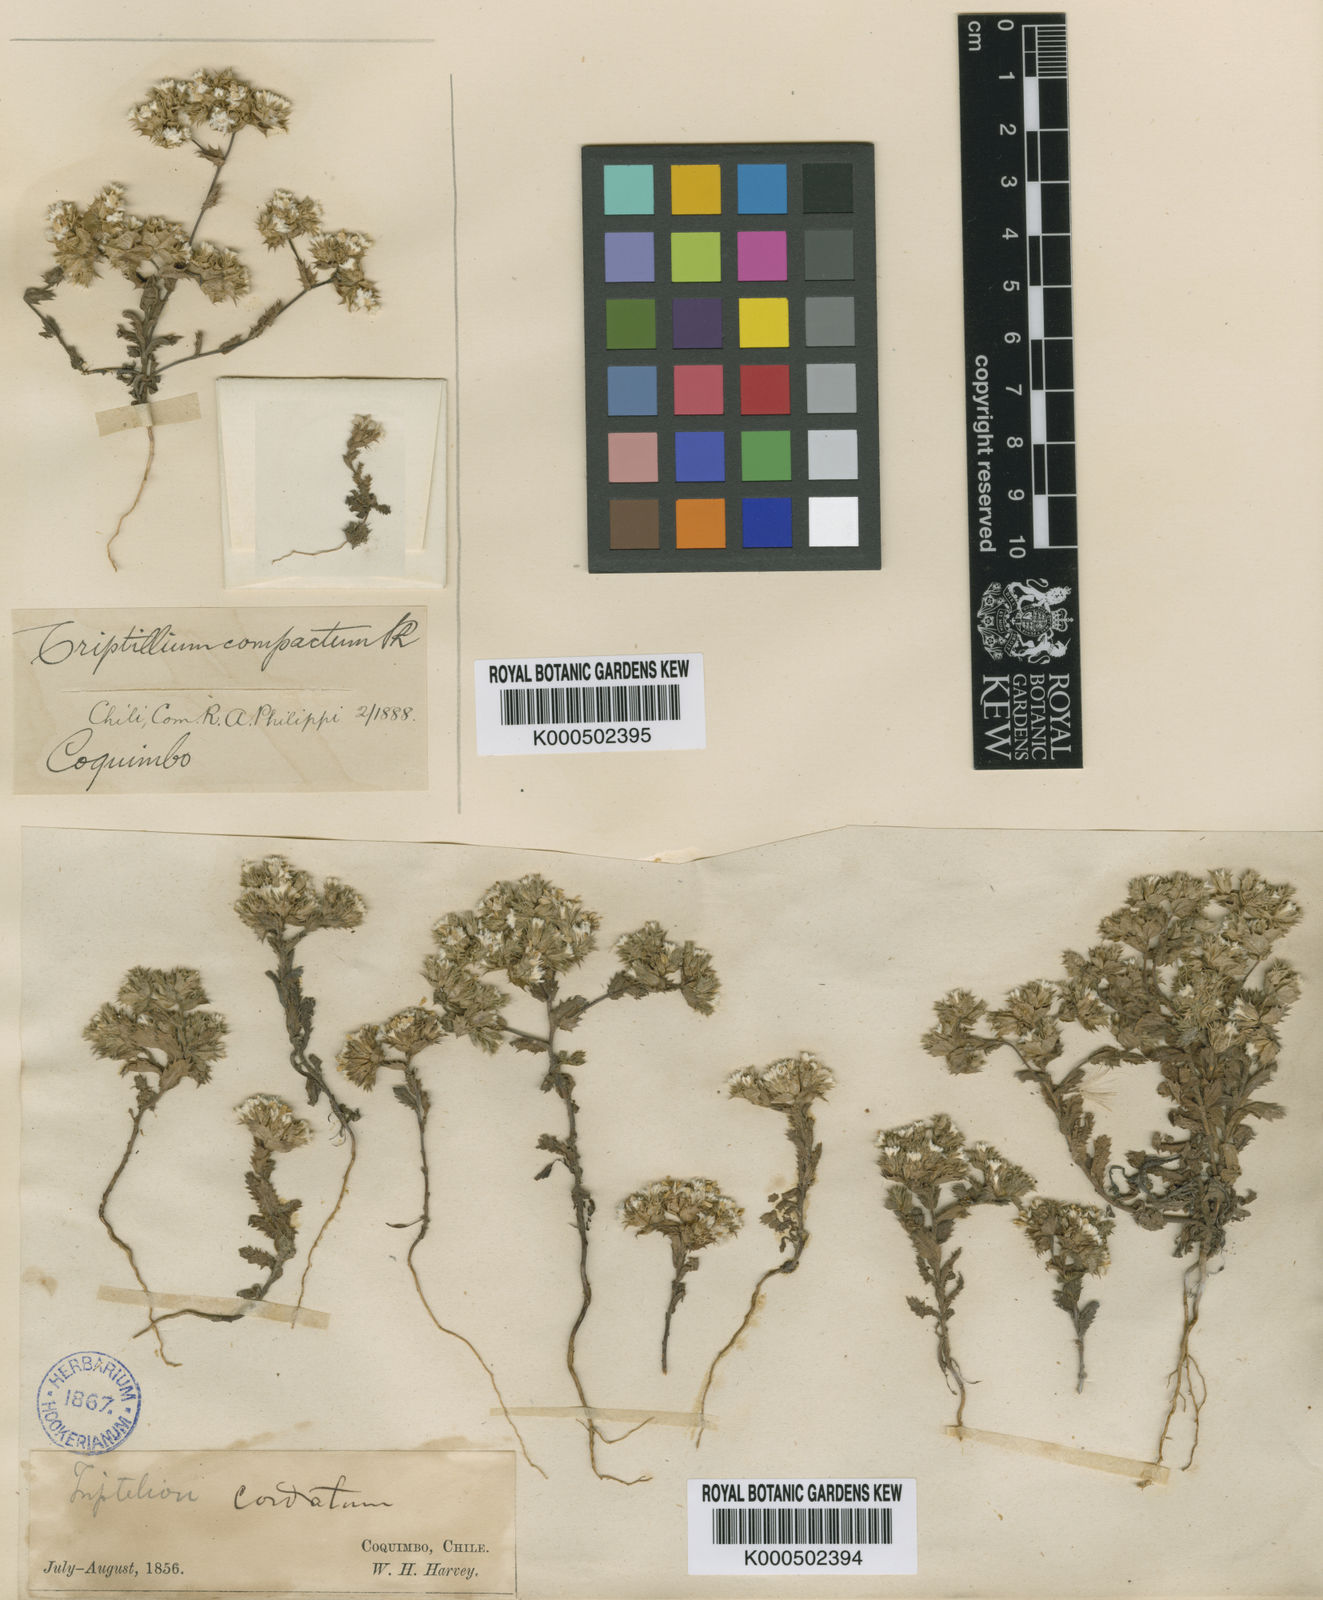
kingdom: Plantae
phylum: Tracheophyta
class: Magnoliopsida
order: Asterales
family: Asteraceae
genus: Triptilion
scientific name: Triptilion gibbosum
